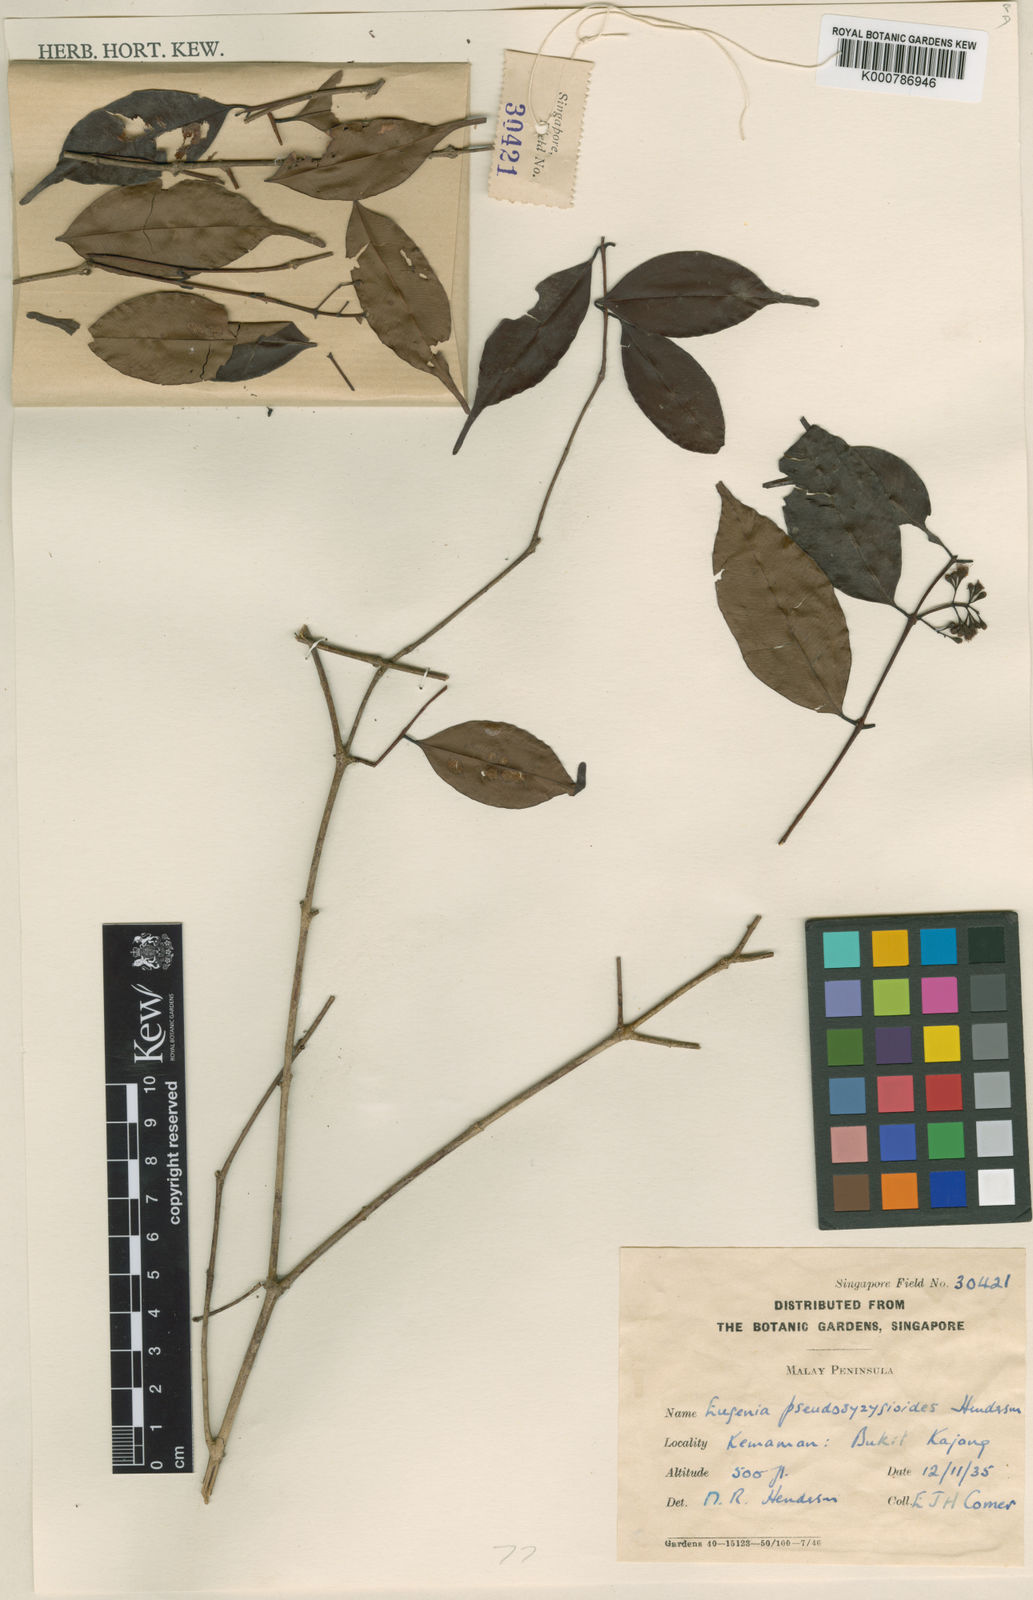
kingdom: Plantae
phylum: Tracheophyta
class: Magnoliopsida
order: Myrtales
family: Myrtaceae
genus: Syzygium
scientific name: Syzygium
